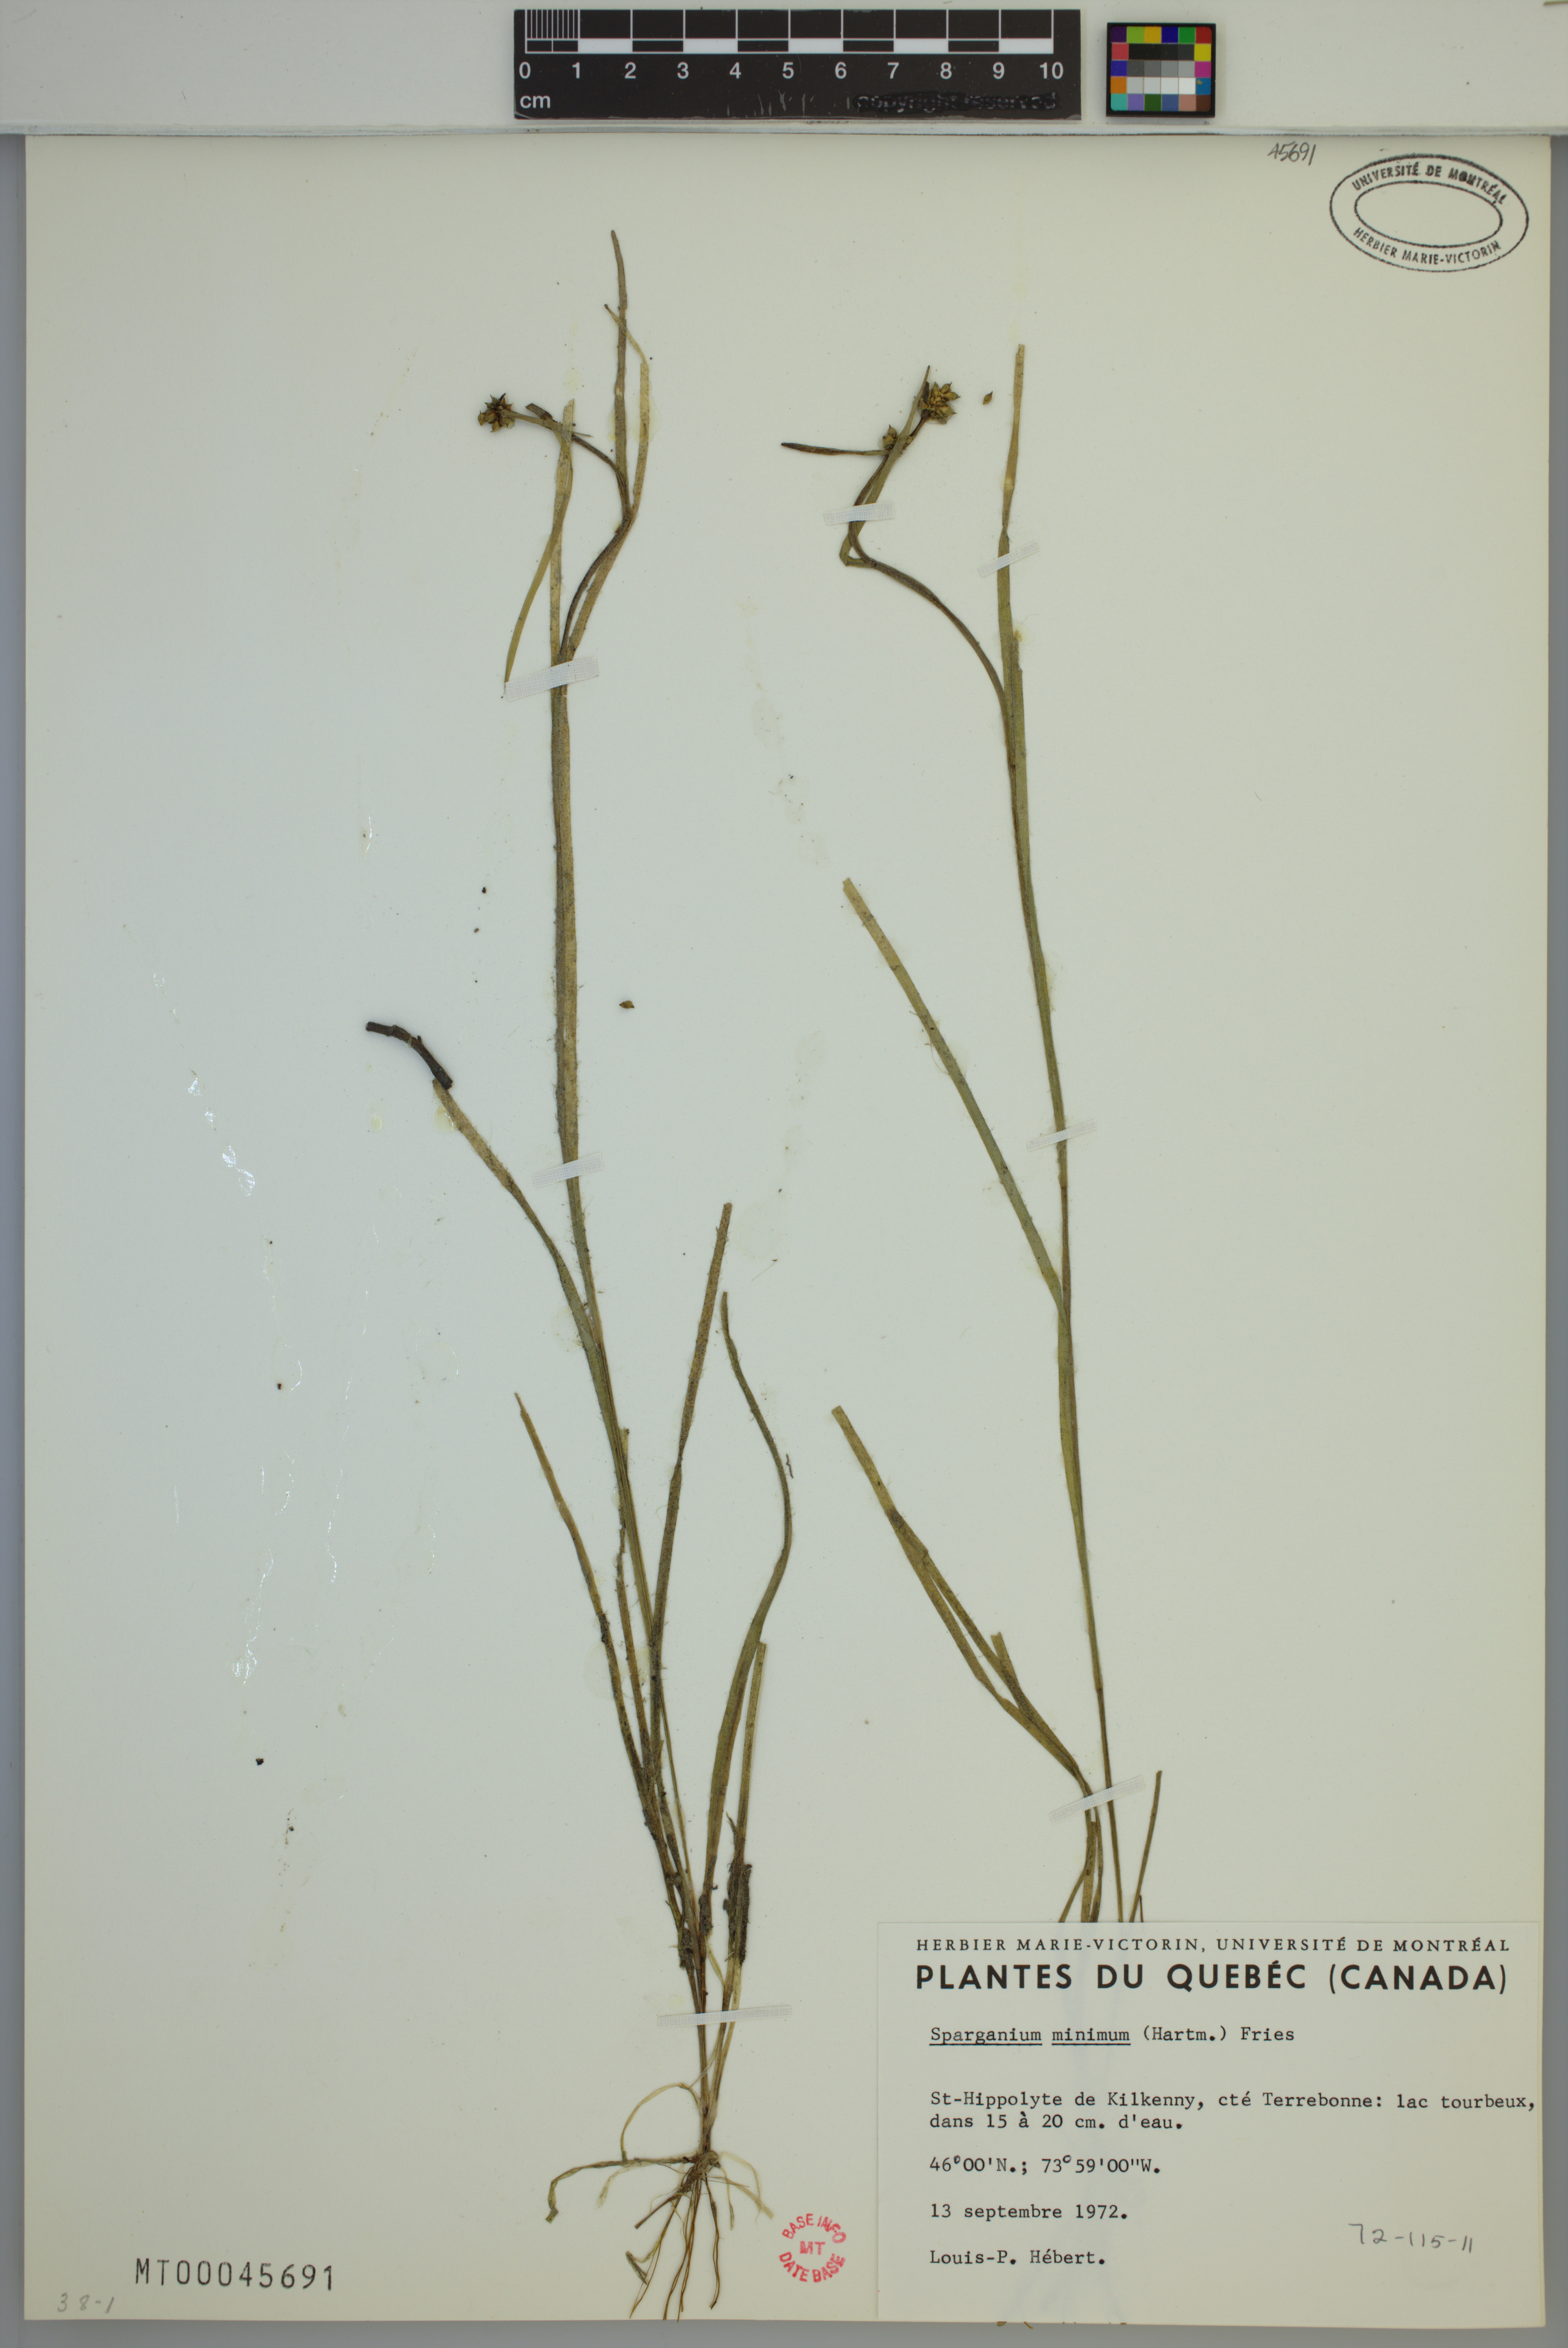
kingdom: Plantae
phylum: Tracheophyta
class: Liliopsida
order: Poales
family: Typhaceae
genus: Sparganium
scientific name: Sparganium natans
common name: Least bur-reed
